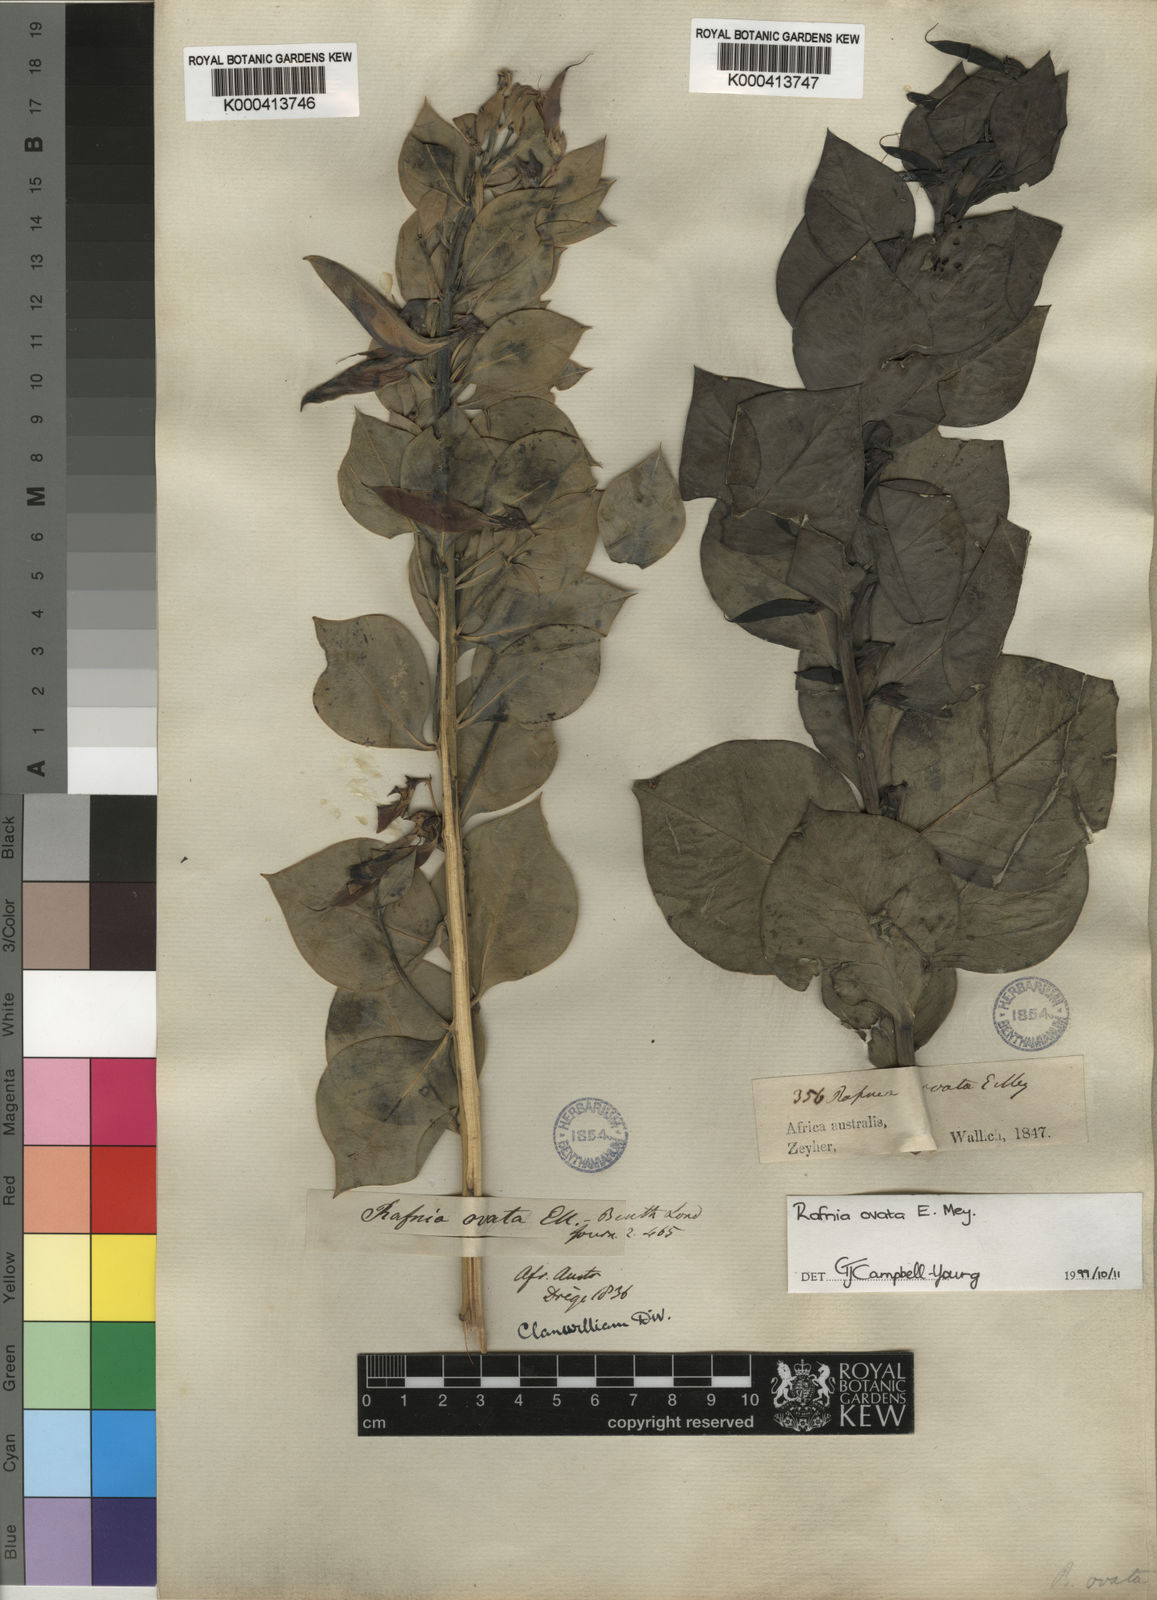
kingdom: Plantae
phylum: Tracheophyta
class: Magnoliopsida
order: Fabales
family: Fabaceae
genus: Rafnia
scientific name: Rafnia ovata
